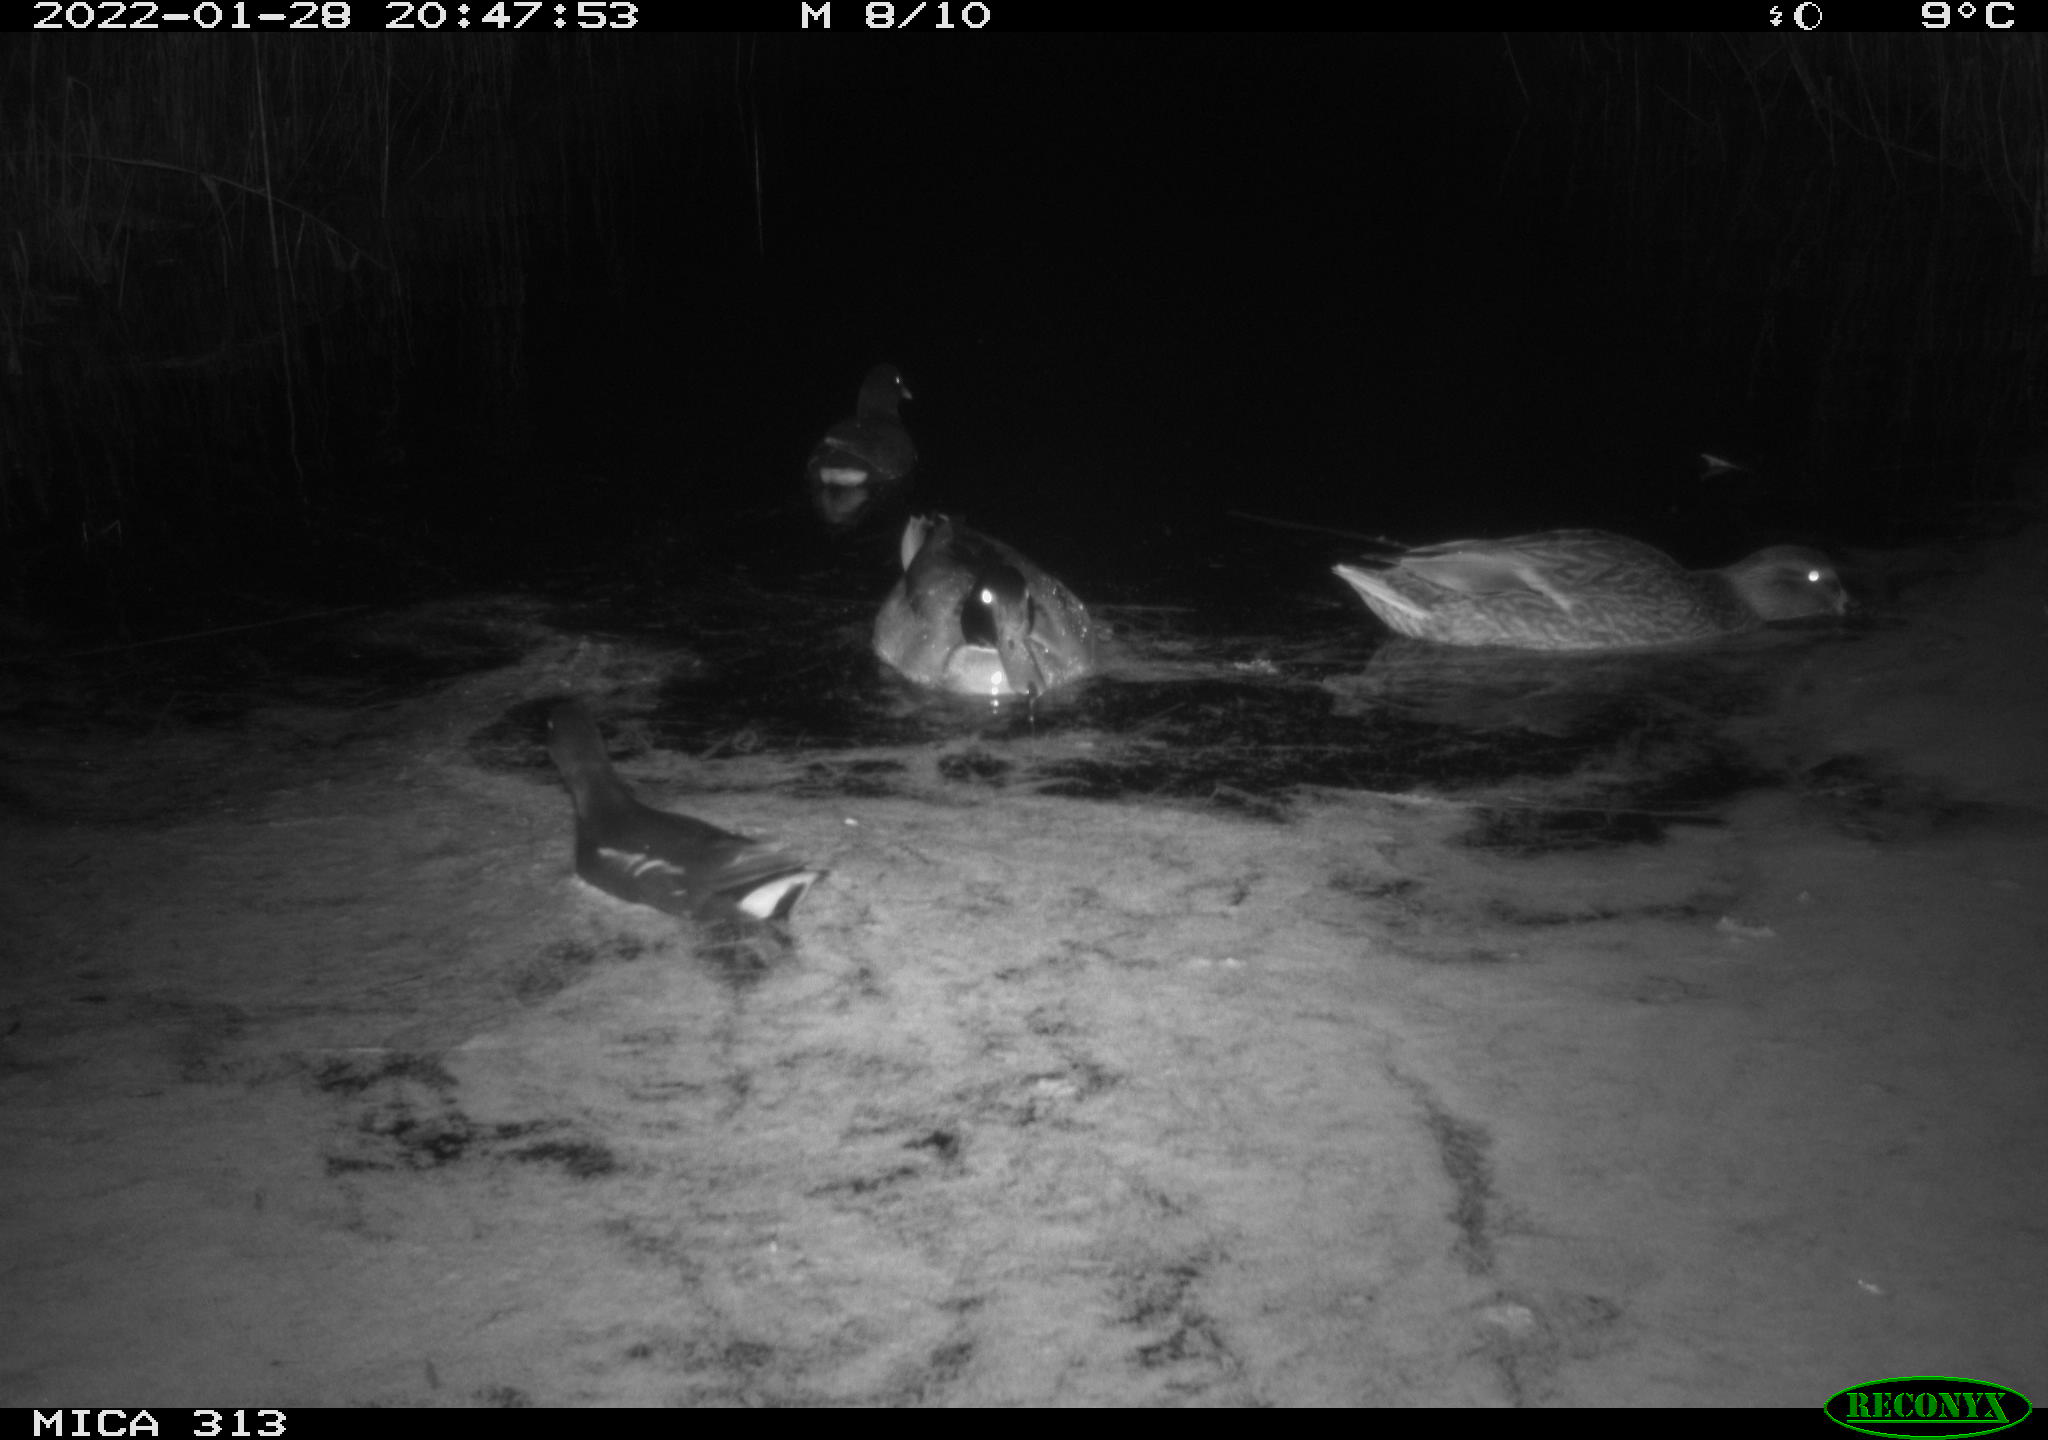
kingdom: Animalia
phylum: Chordata
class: Aves
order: Anseriformes
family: Anatidae
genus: Anas
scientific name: Anas
